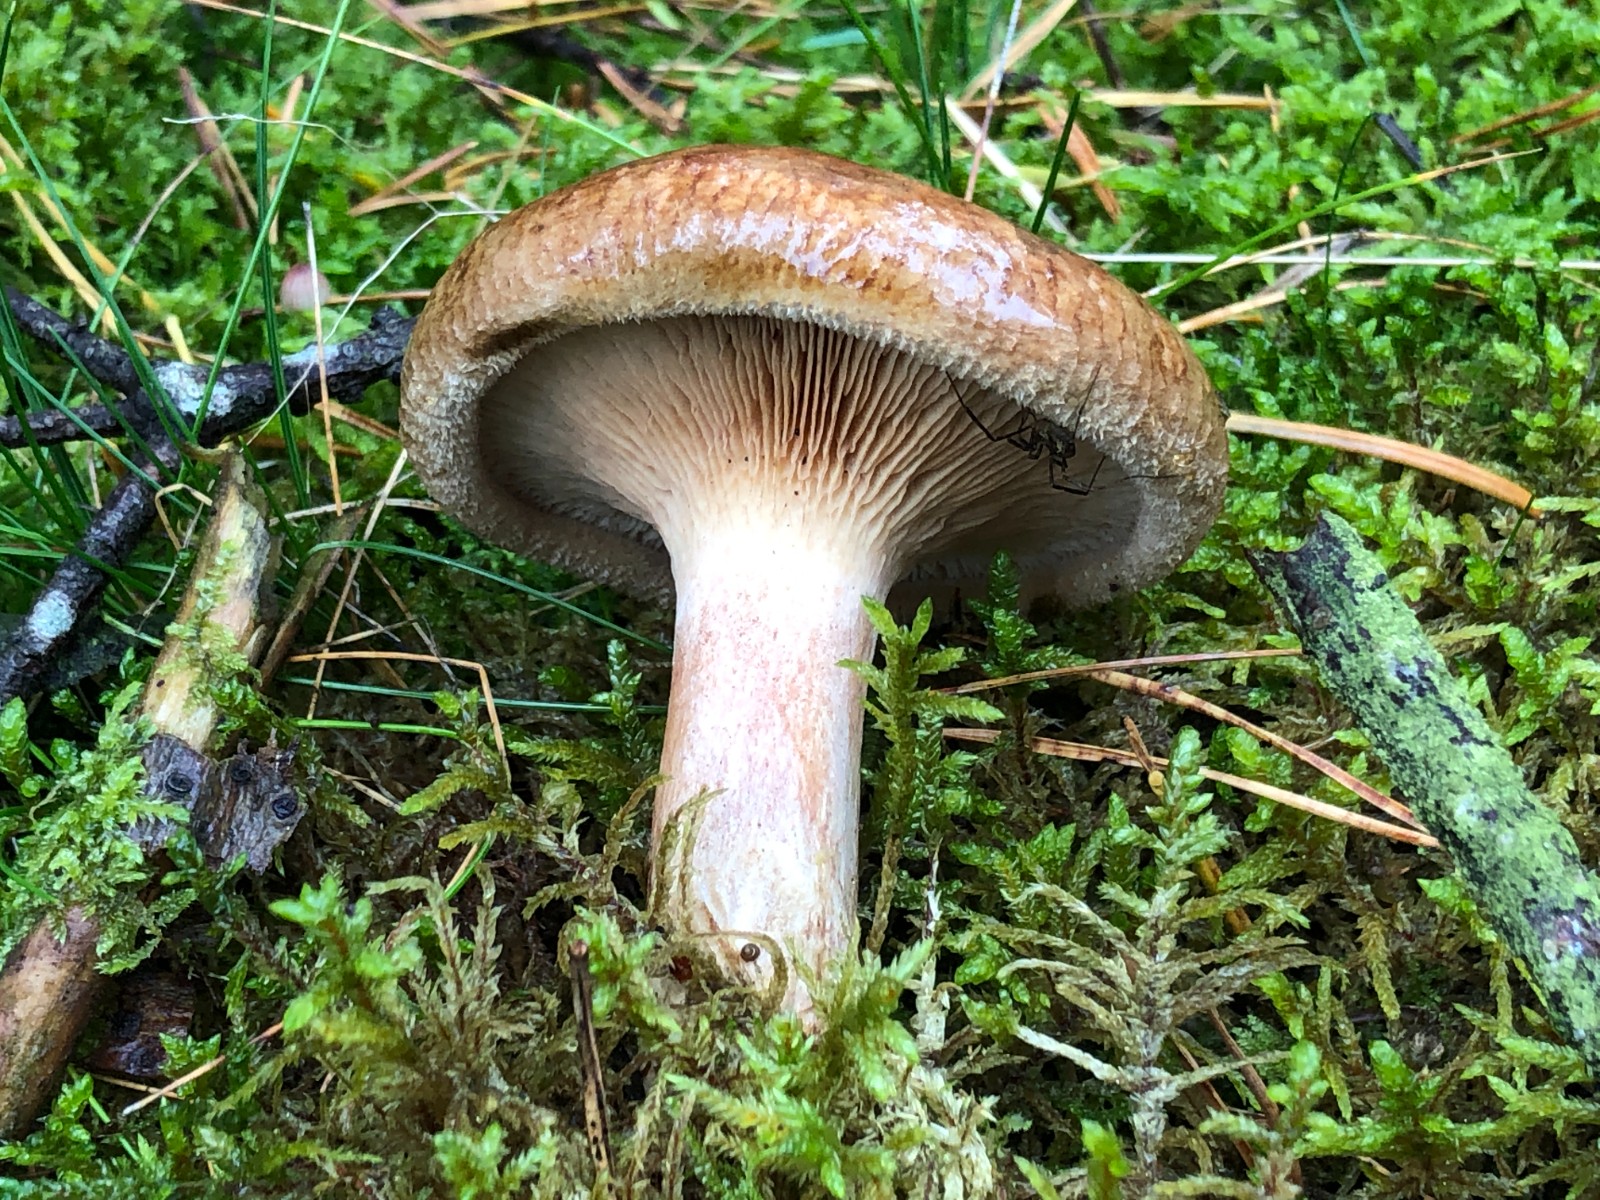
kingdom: Fungi
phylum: Basidiomycota
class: Agaricomycetes
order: Boletales
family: Paxillaceae
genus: Paxillus
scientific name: Paxillus involutus
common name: almindelig netbladhat
